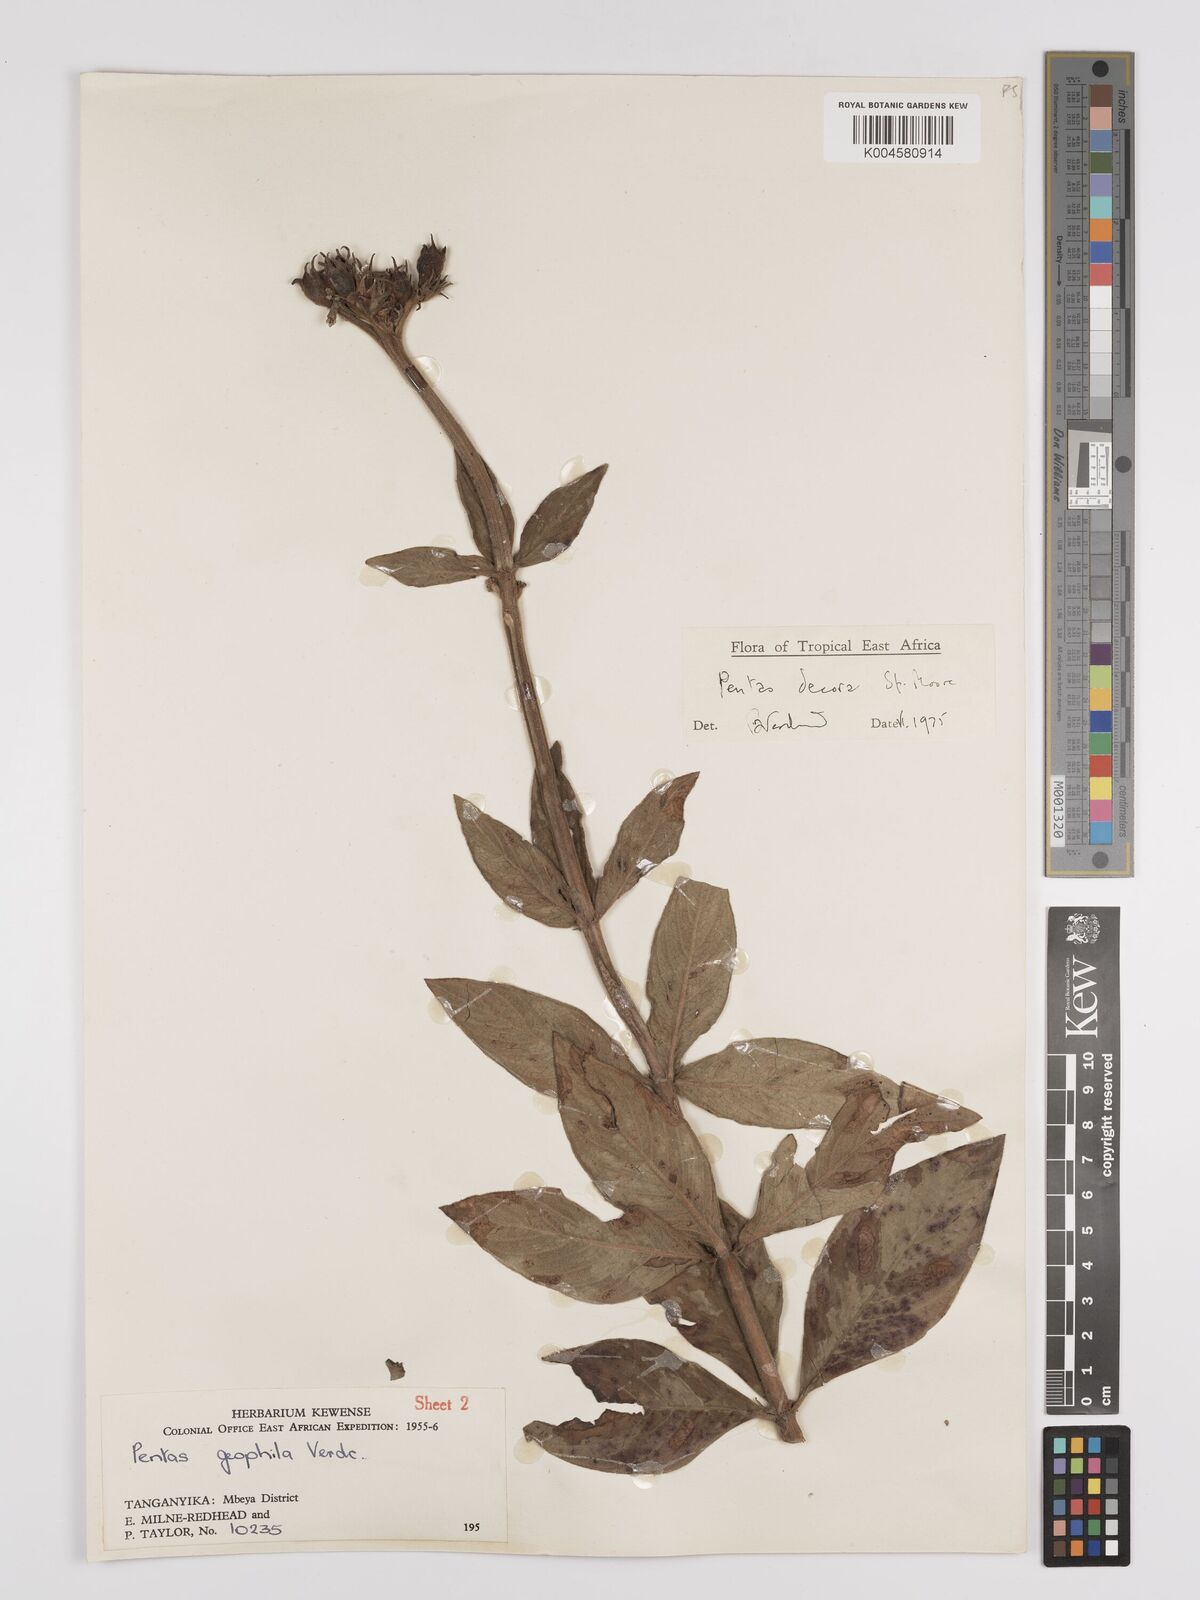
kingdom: Plantae
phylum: Tracheophyta
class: Magnoliopsida
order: Gentianales
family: Rubiaceae
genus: Dolichopentas
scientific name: Dolichopentas lindenioides
